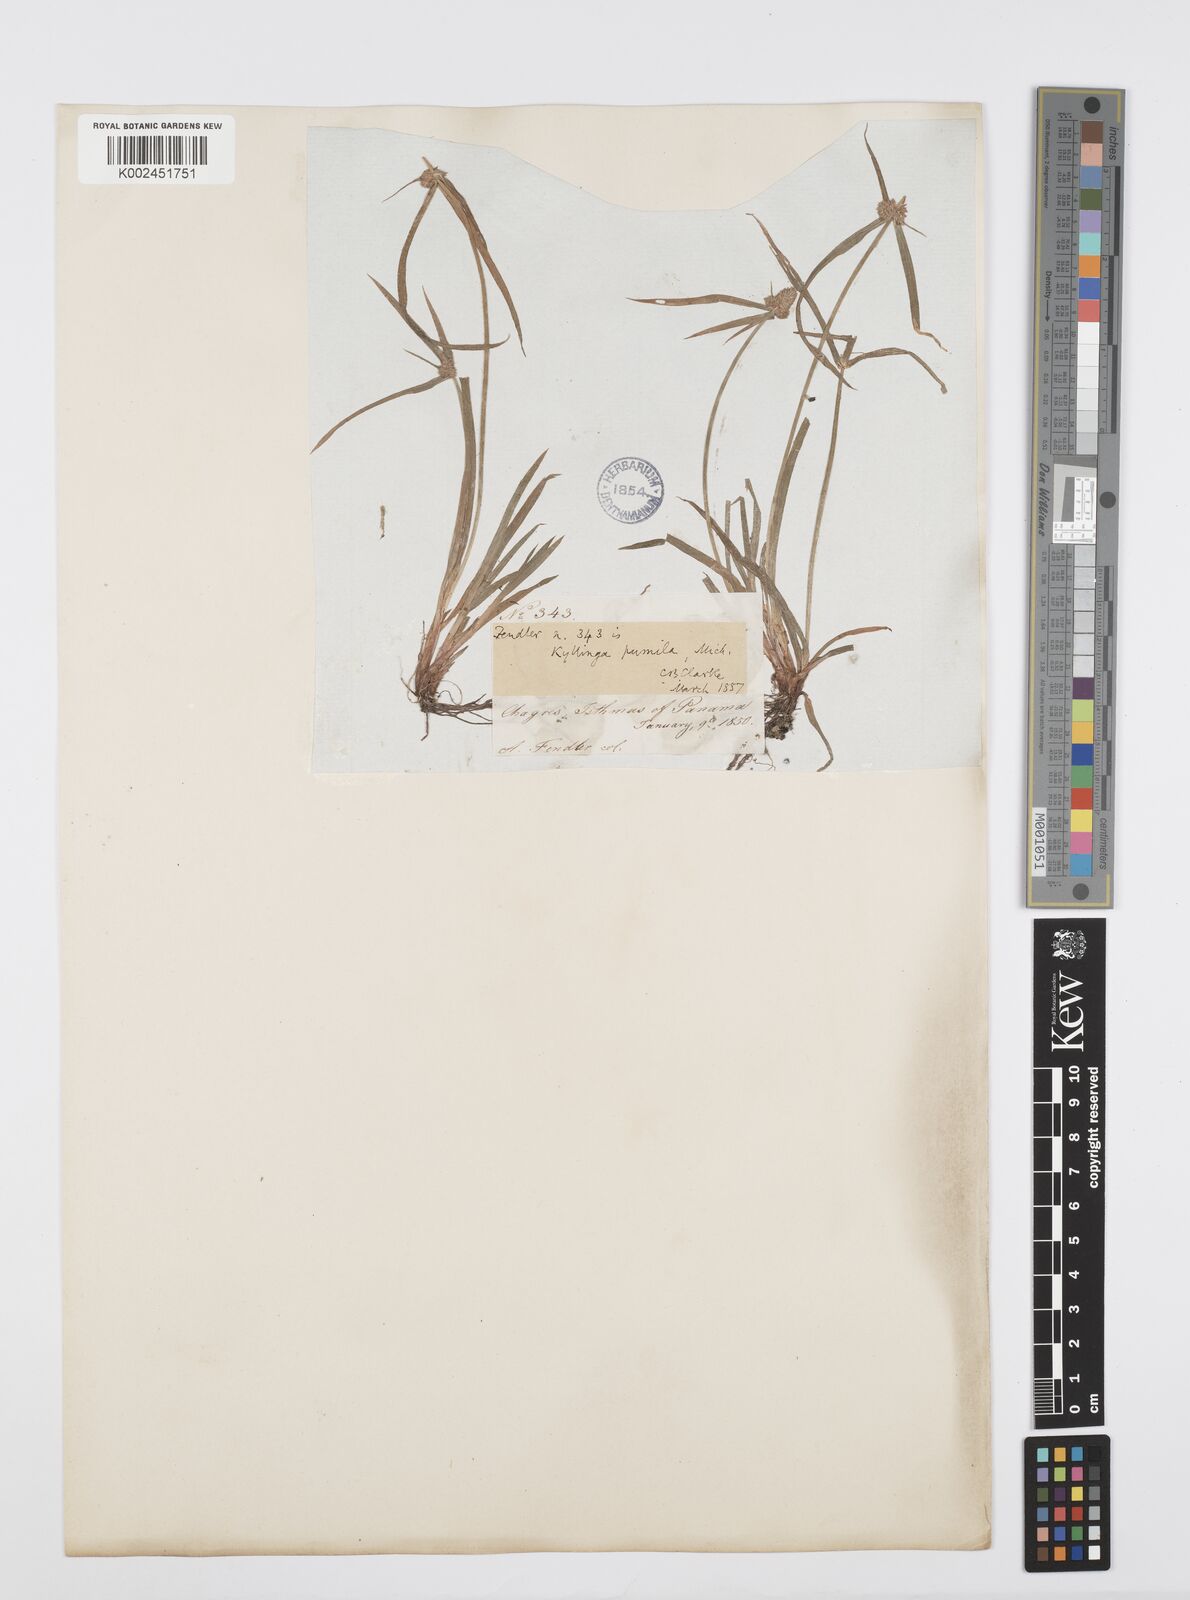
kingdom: Plantae
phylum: Tracheophyta
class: Liliopsida
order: Poales
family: Cyperaceae
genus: Cyperus
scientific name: Cyperus
